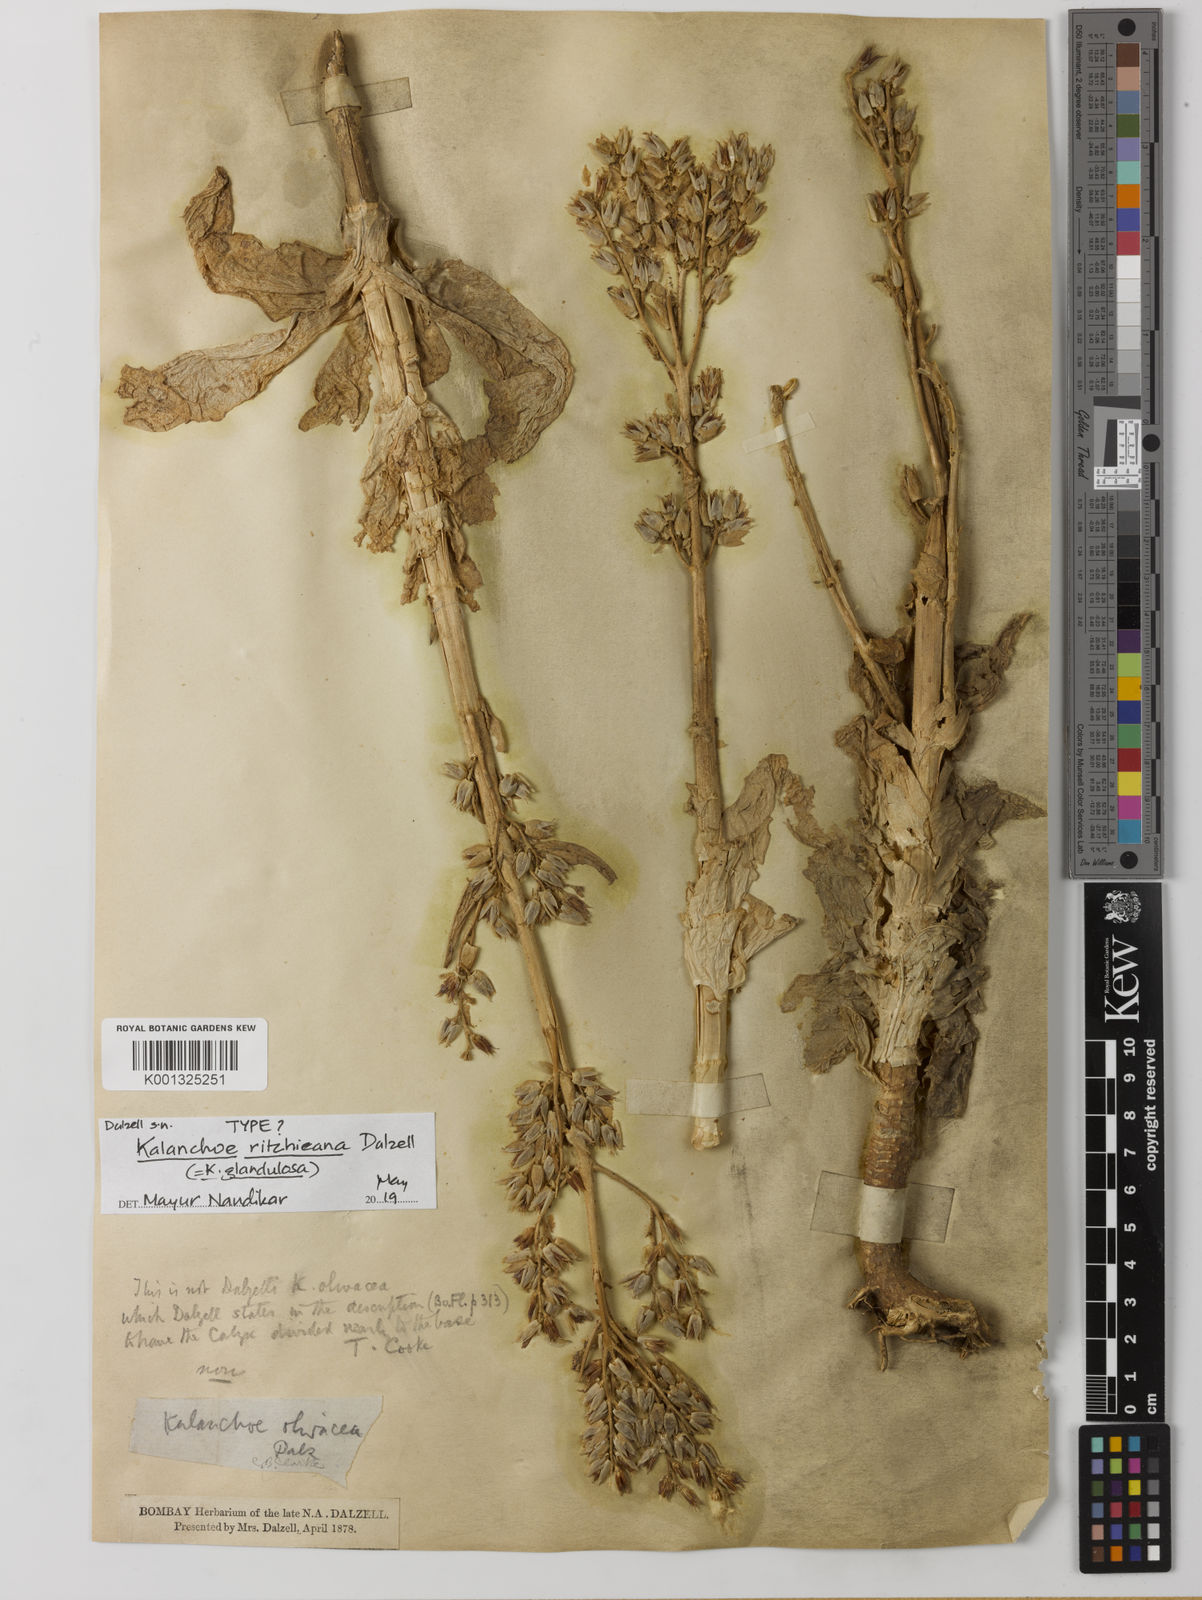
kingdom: Plantae
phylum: Tracheophyta
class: Magnoliopsida
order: Saxifragales
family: Crassulaceae
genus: Kalanchoe
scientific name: Kalanchoe lanceolata
